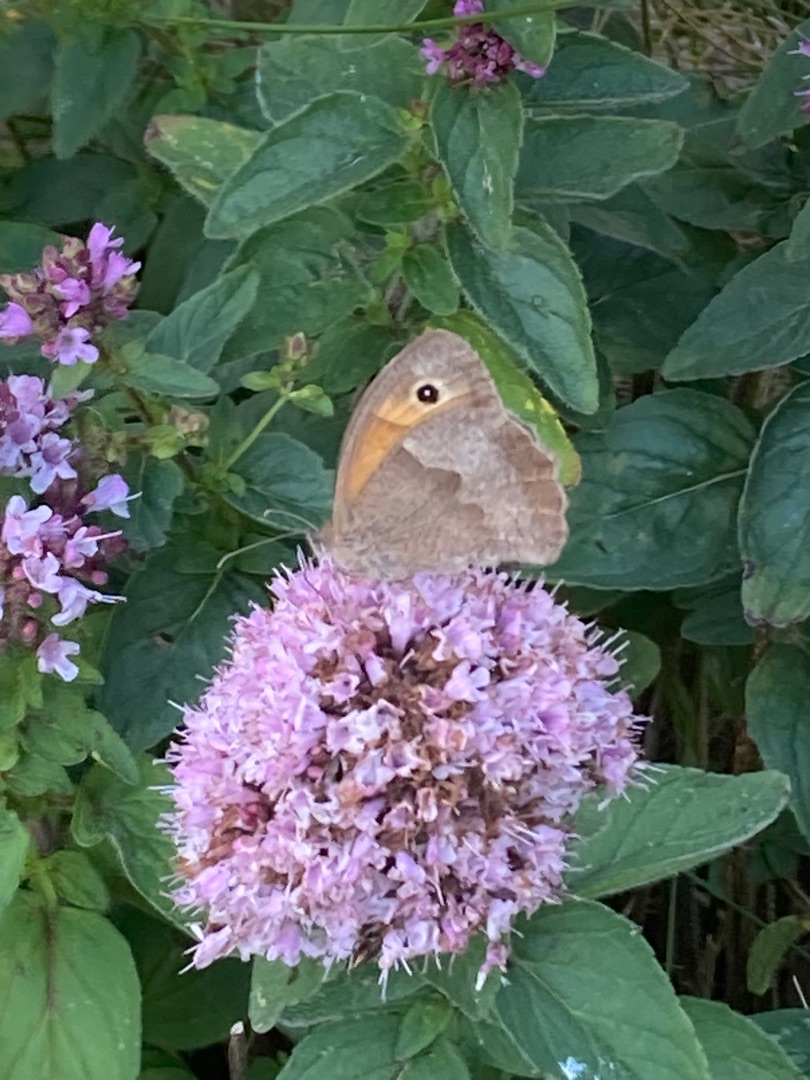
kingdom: Animalia
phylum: Arthropoda
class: Insecta
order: Lepidoptera
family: Nymphalidae
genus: Maniola
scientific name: Maniola jurtina
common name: Græsrandøje
